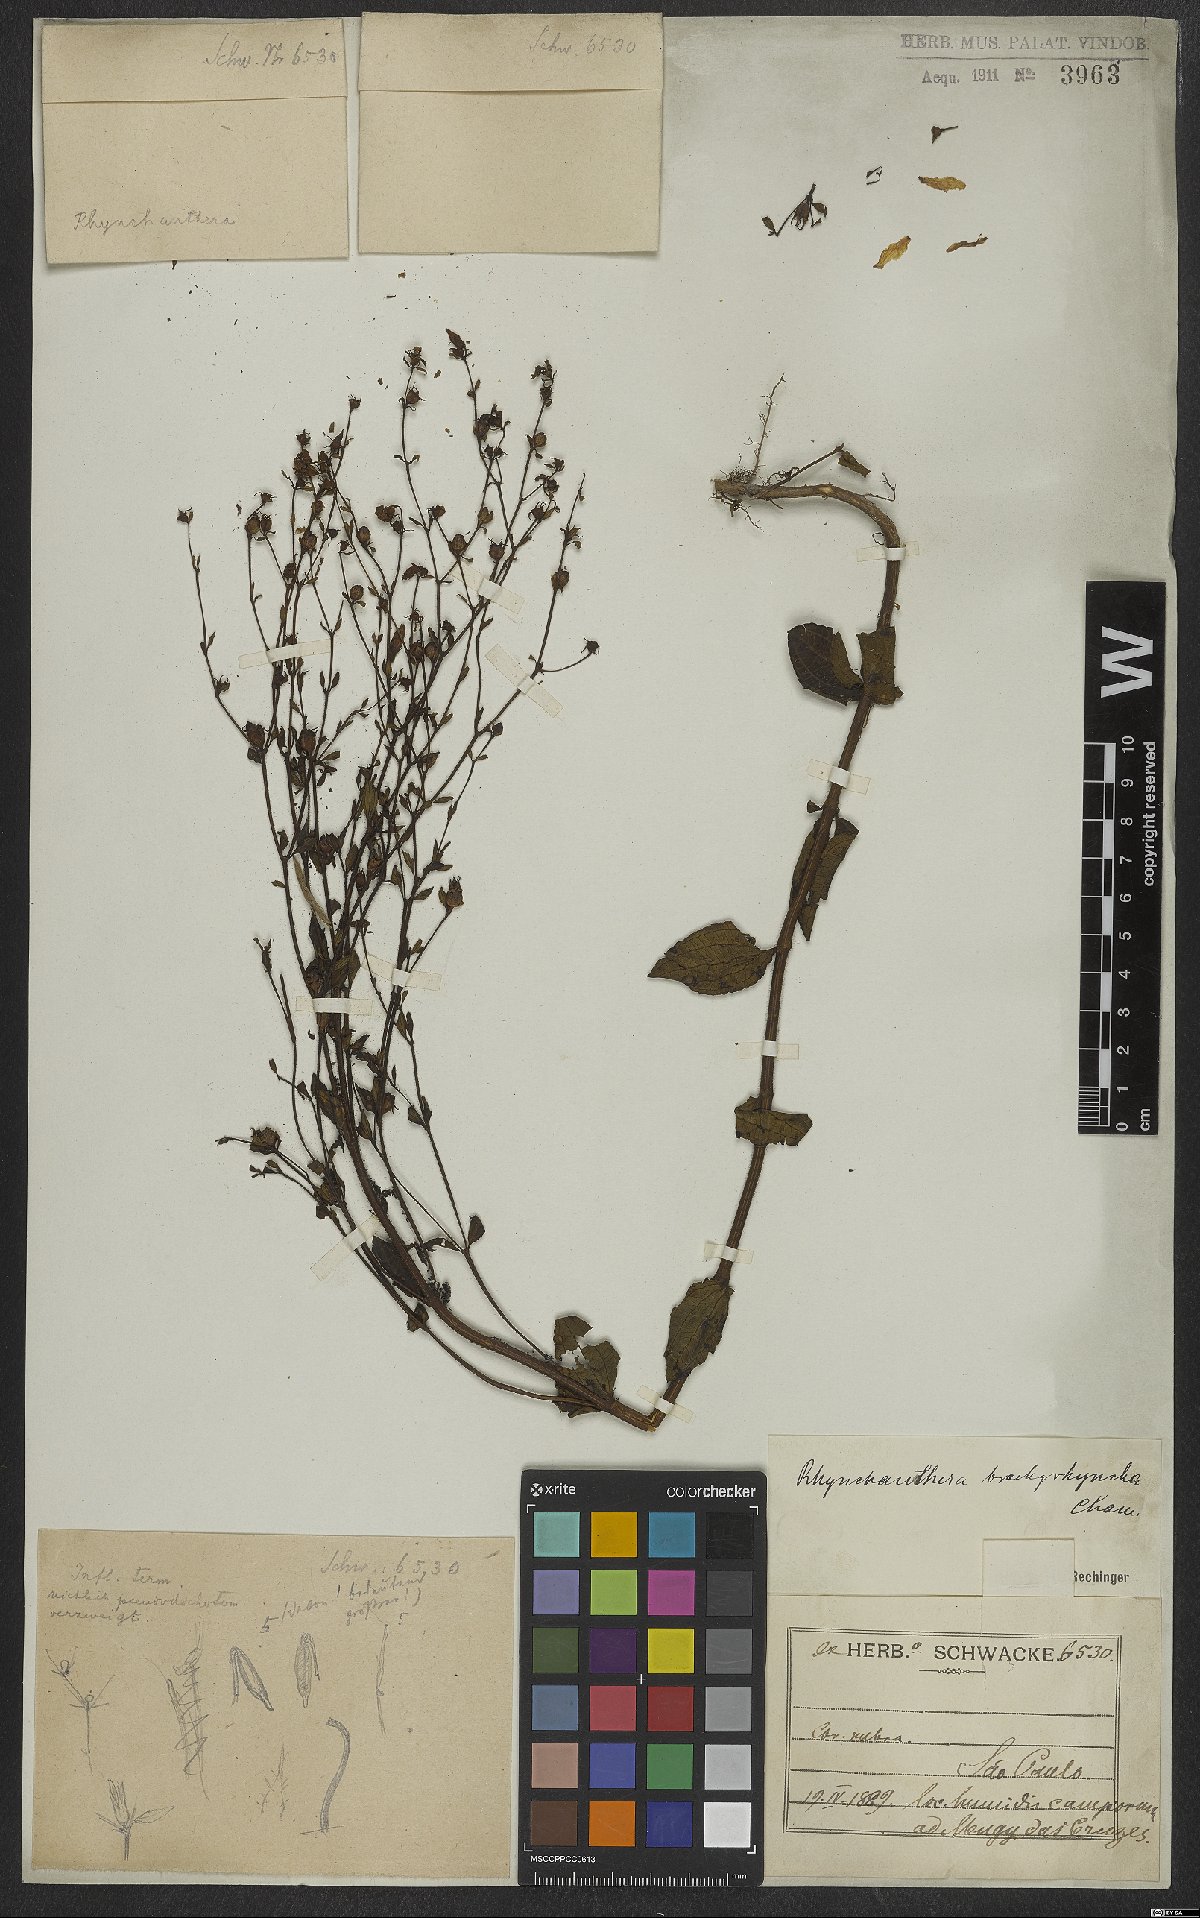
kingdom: Plantae
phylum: Tracheophyta
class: Magnoliopsida
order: Myrtales
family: Melastomataceae
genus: Rhynchanthera
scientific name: Rhynchanthera brachyrhyncha
